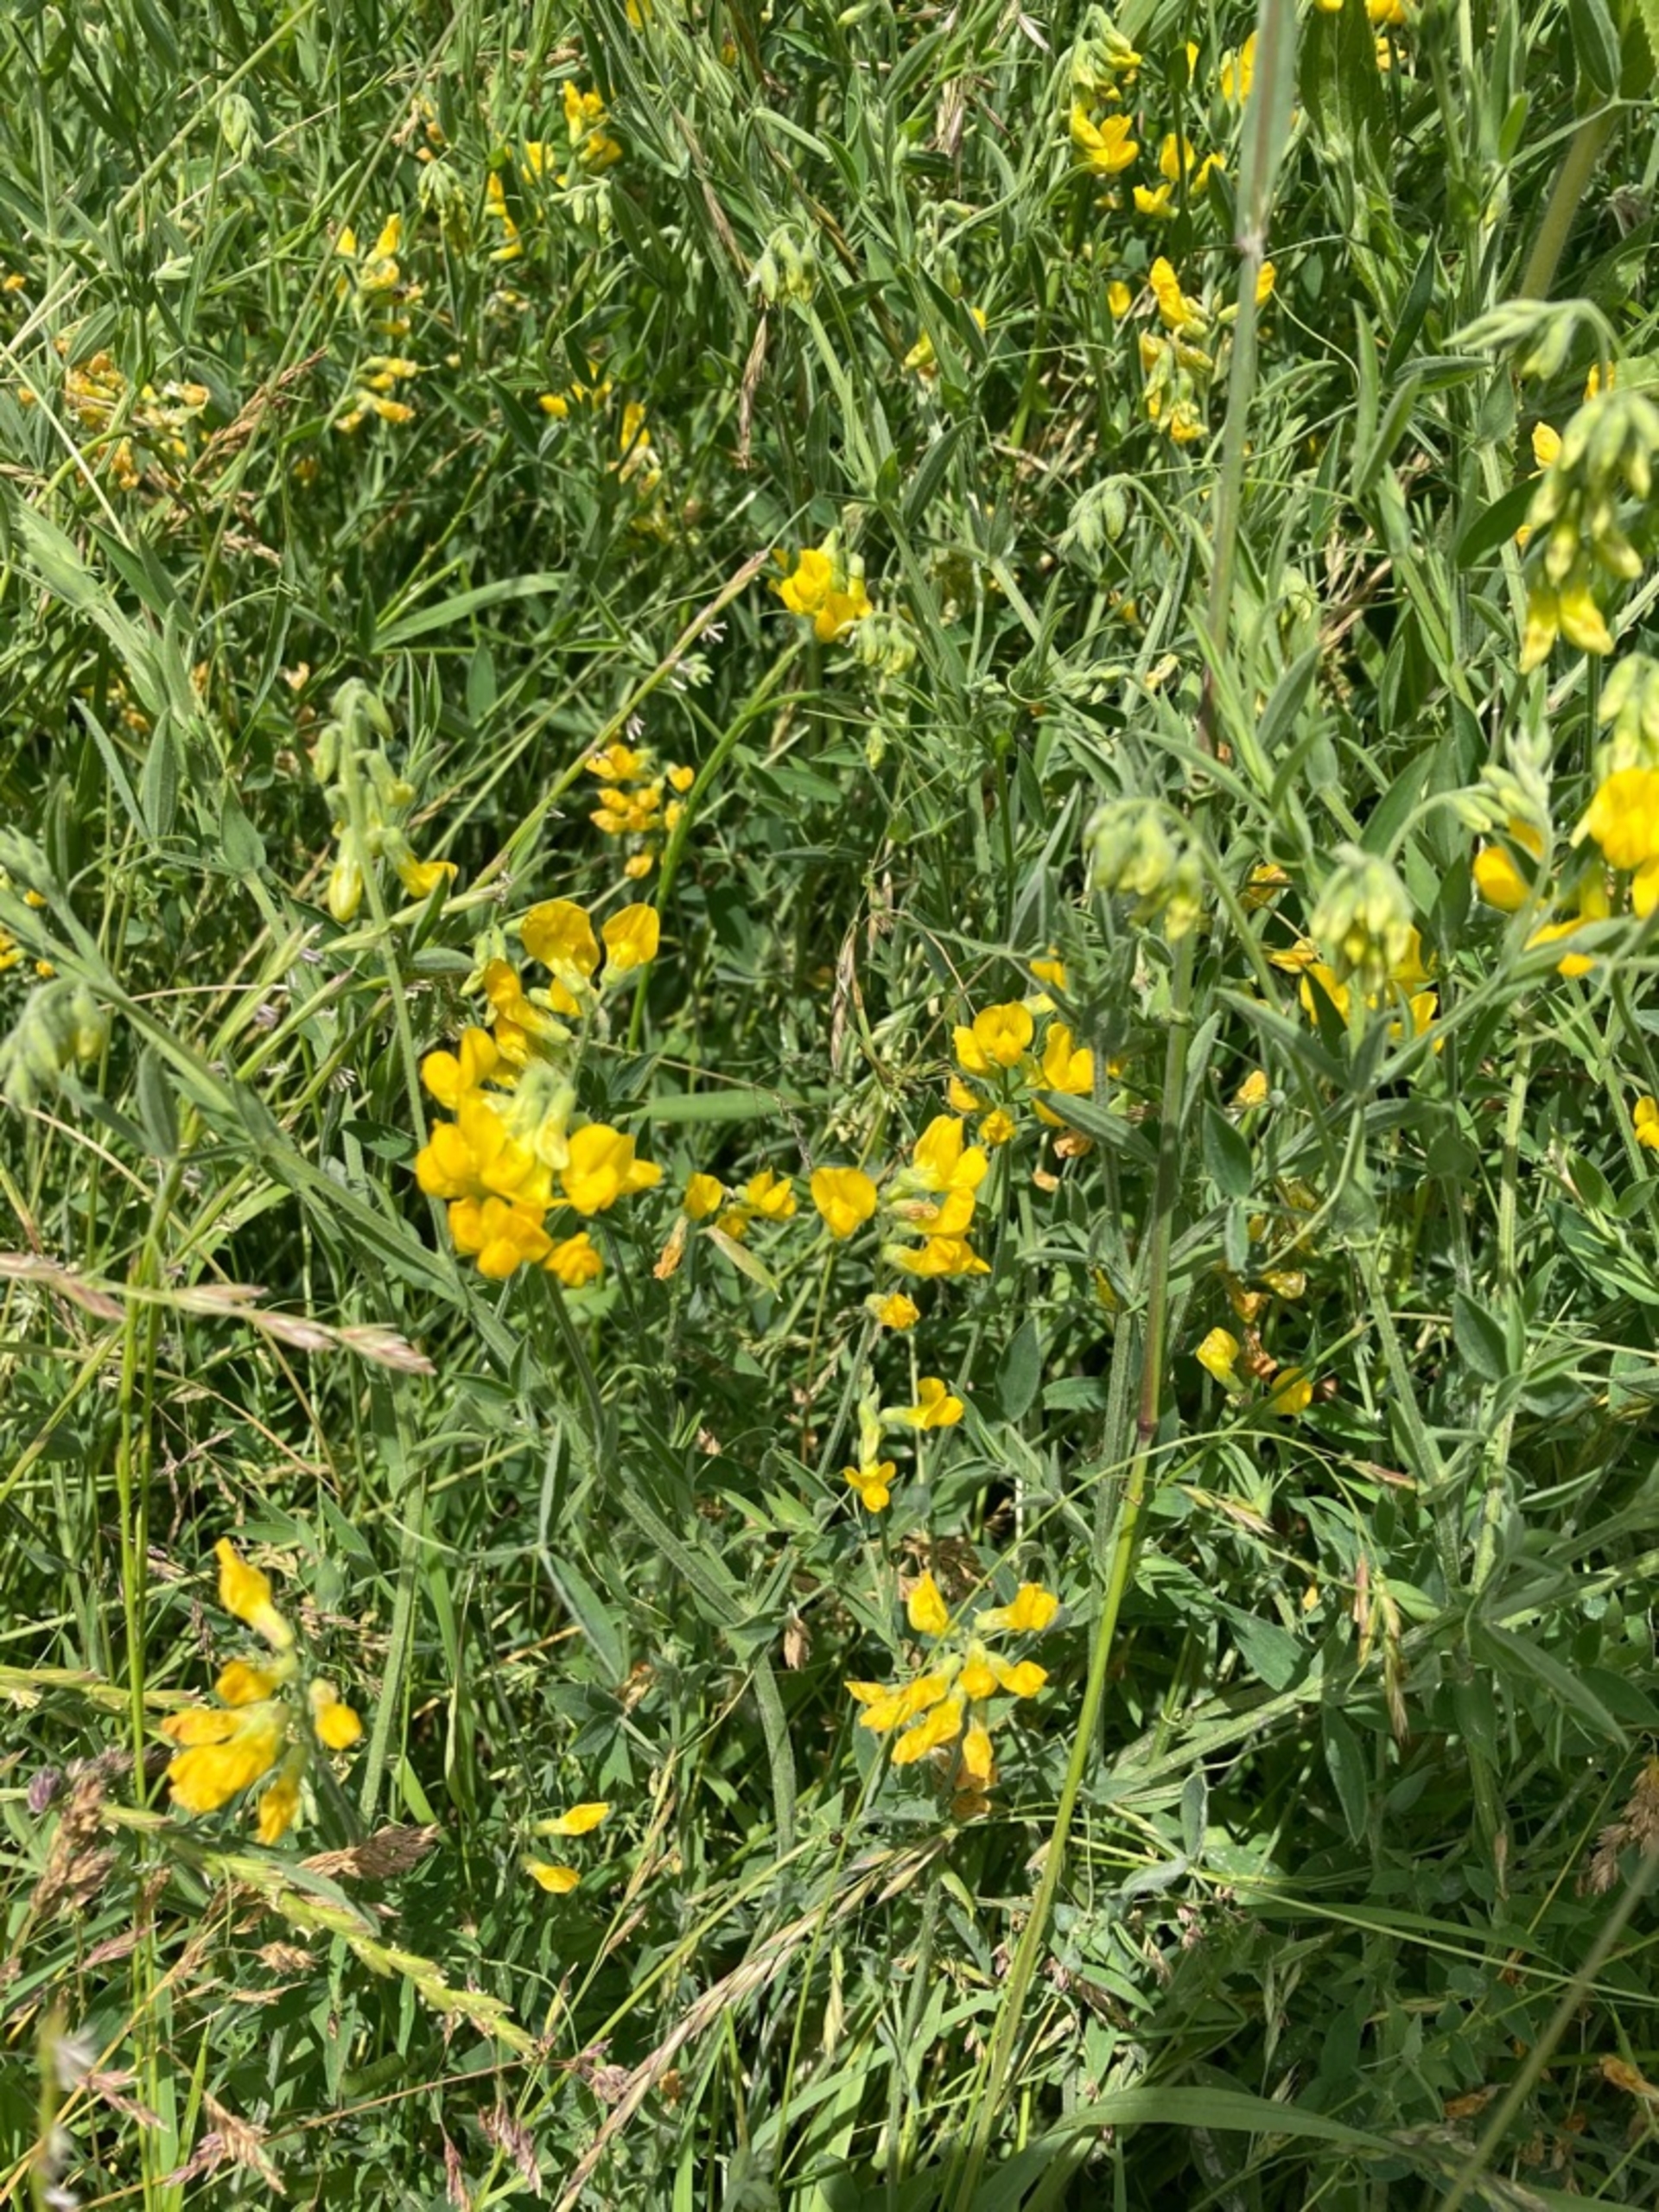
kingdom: Plantae
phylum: Tracheophyta
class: Magnoliopsida
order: Fabales
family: Fabaceae
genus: Lathyrus
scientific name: Lathyrus pratensis
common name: Gul fladbælg
